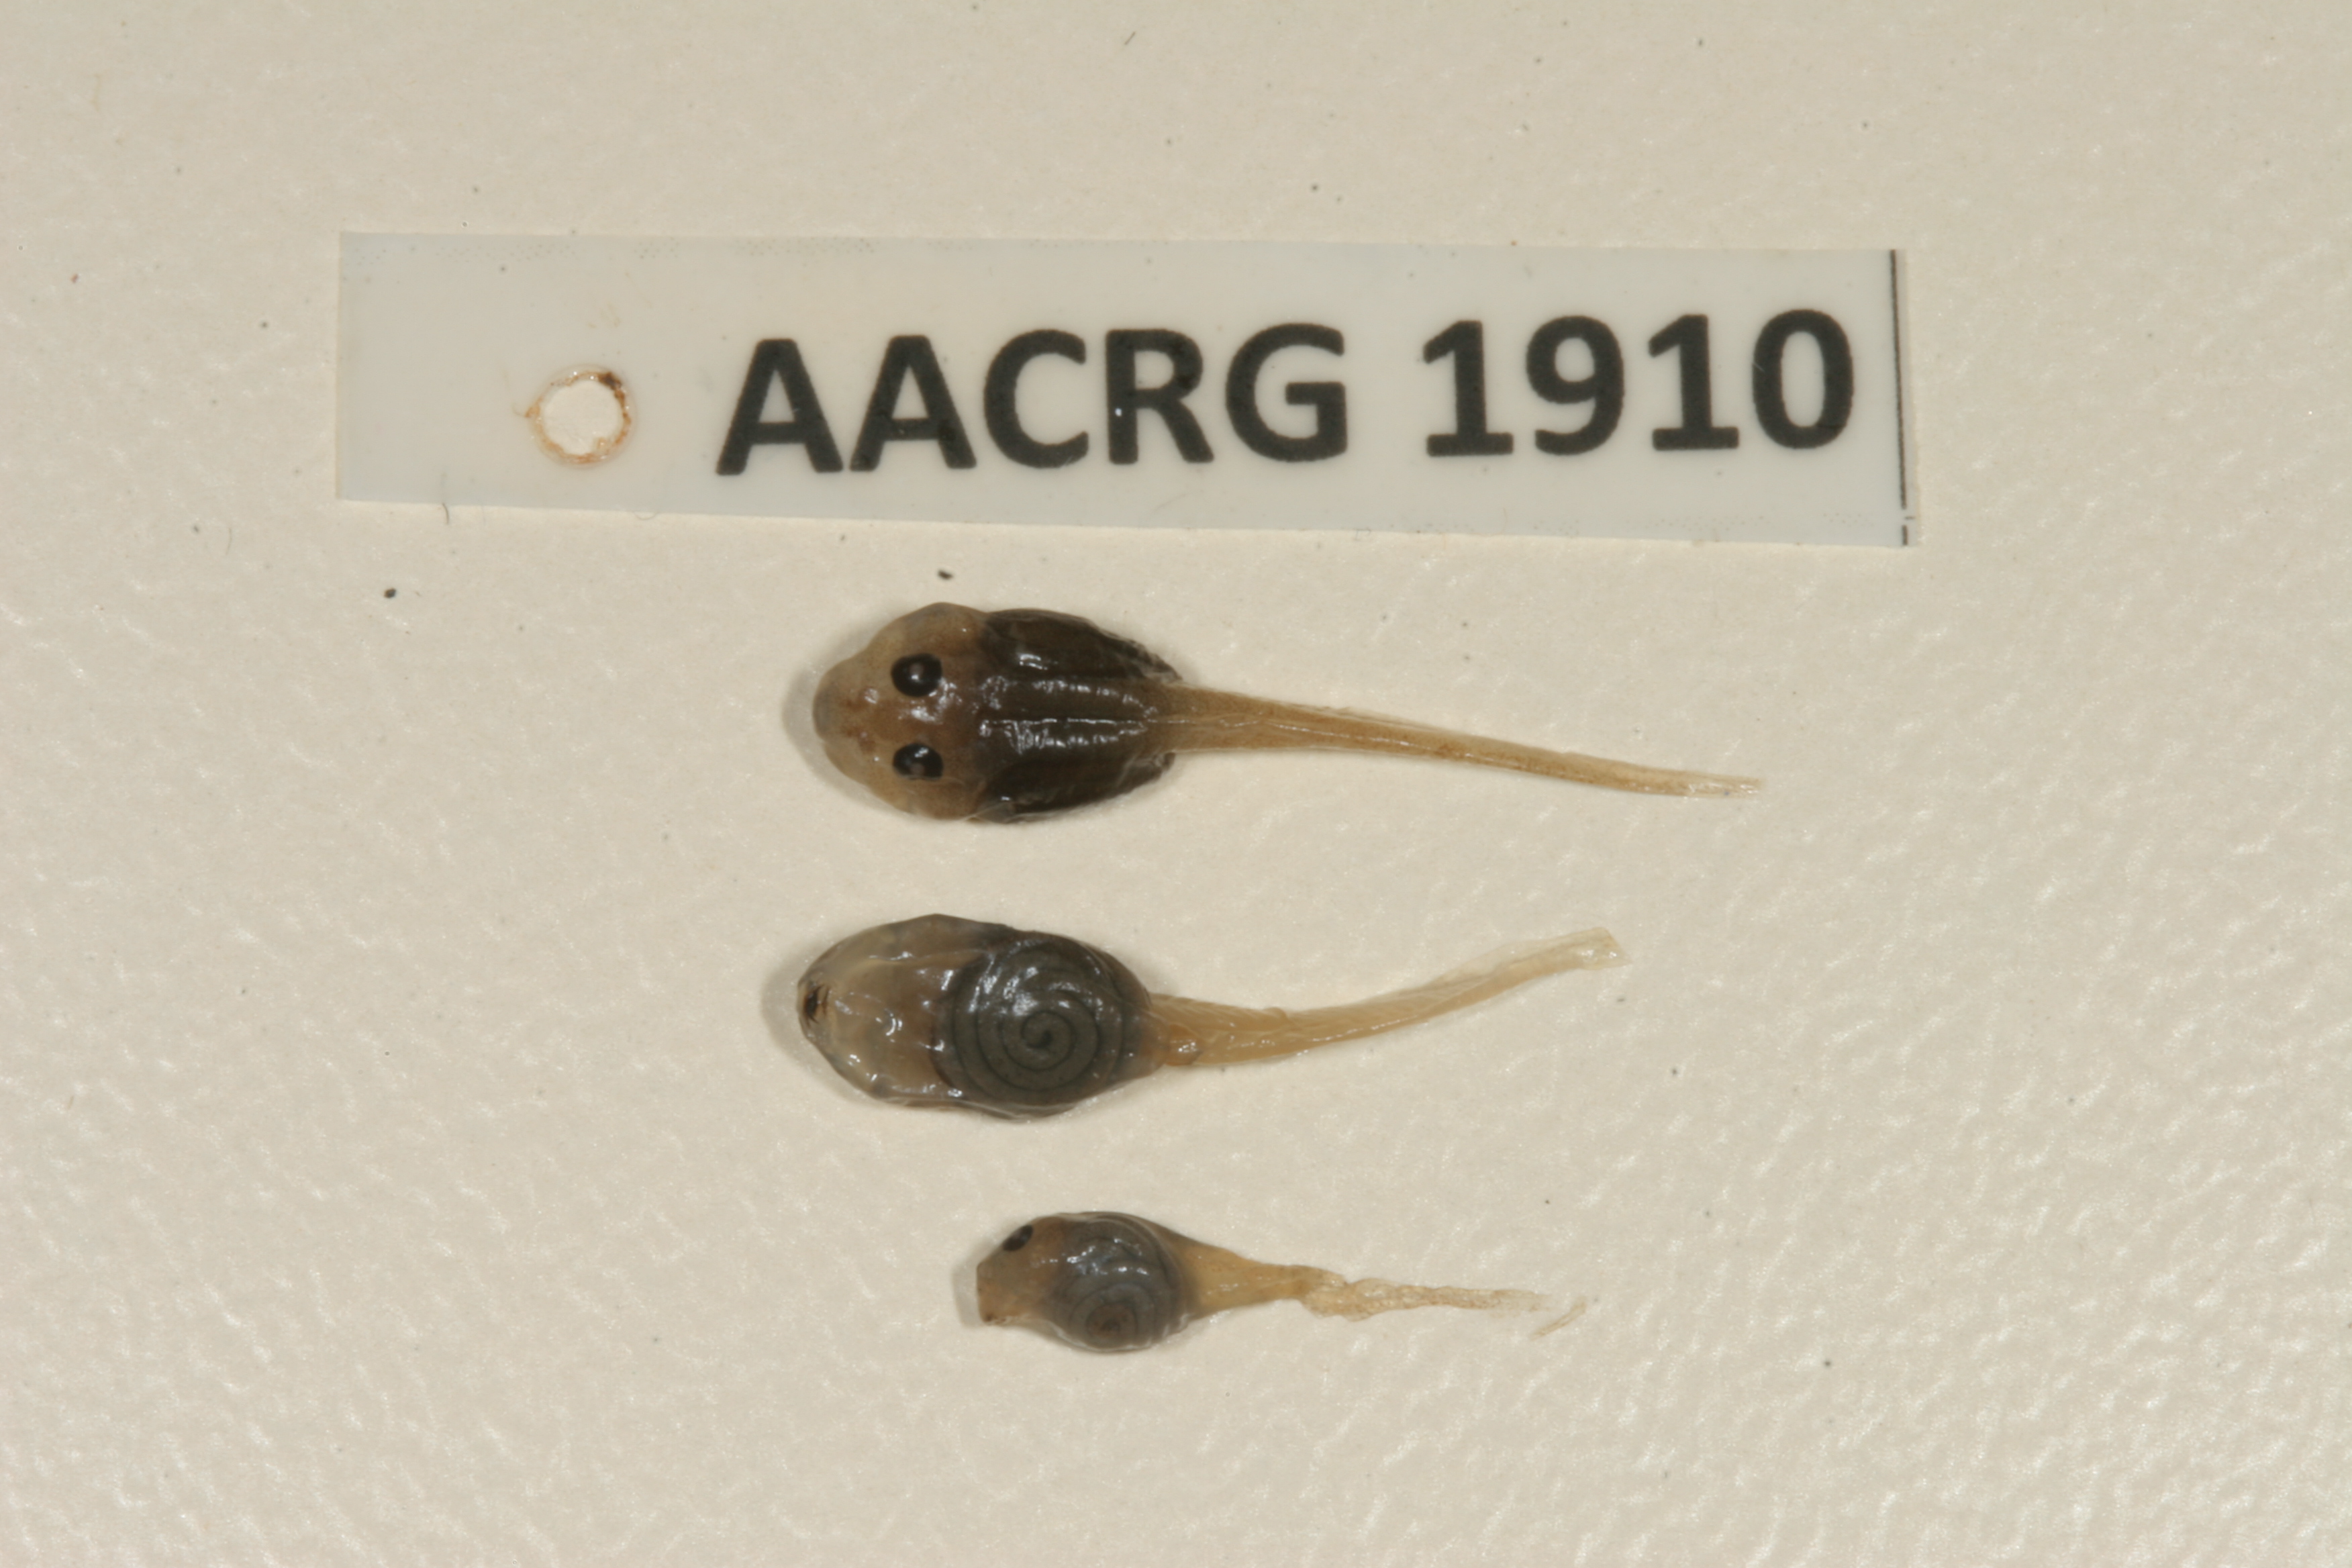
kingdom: Animalia
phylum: Chordata
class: Amphibia
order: Anura
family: Ptychadenidae
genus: Ptychadena
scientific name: Ptychadena mossambica
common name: Mozambique ridged frog
